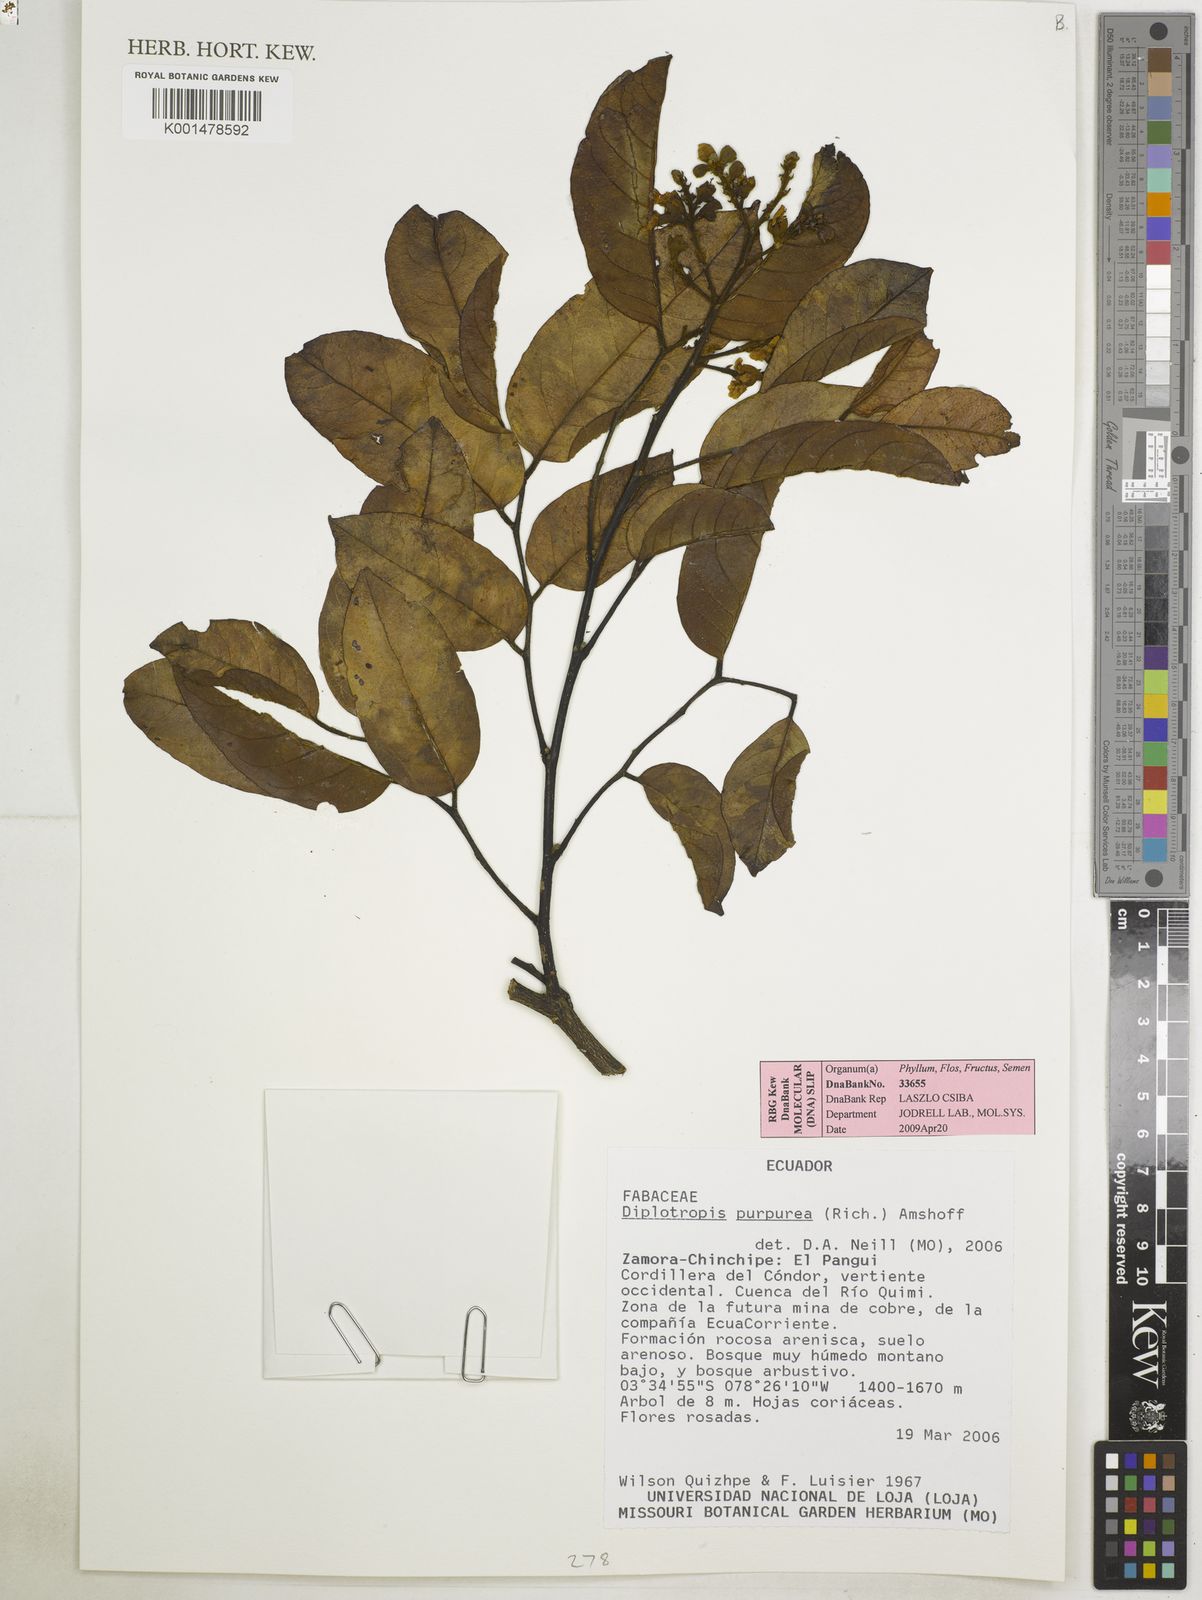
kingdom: Plantae
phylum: Tracheophyta
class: Magnoliopsida
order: Fabales
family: Fabaceae
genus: Diplotropis
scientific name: Diplotropis purpurea
